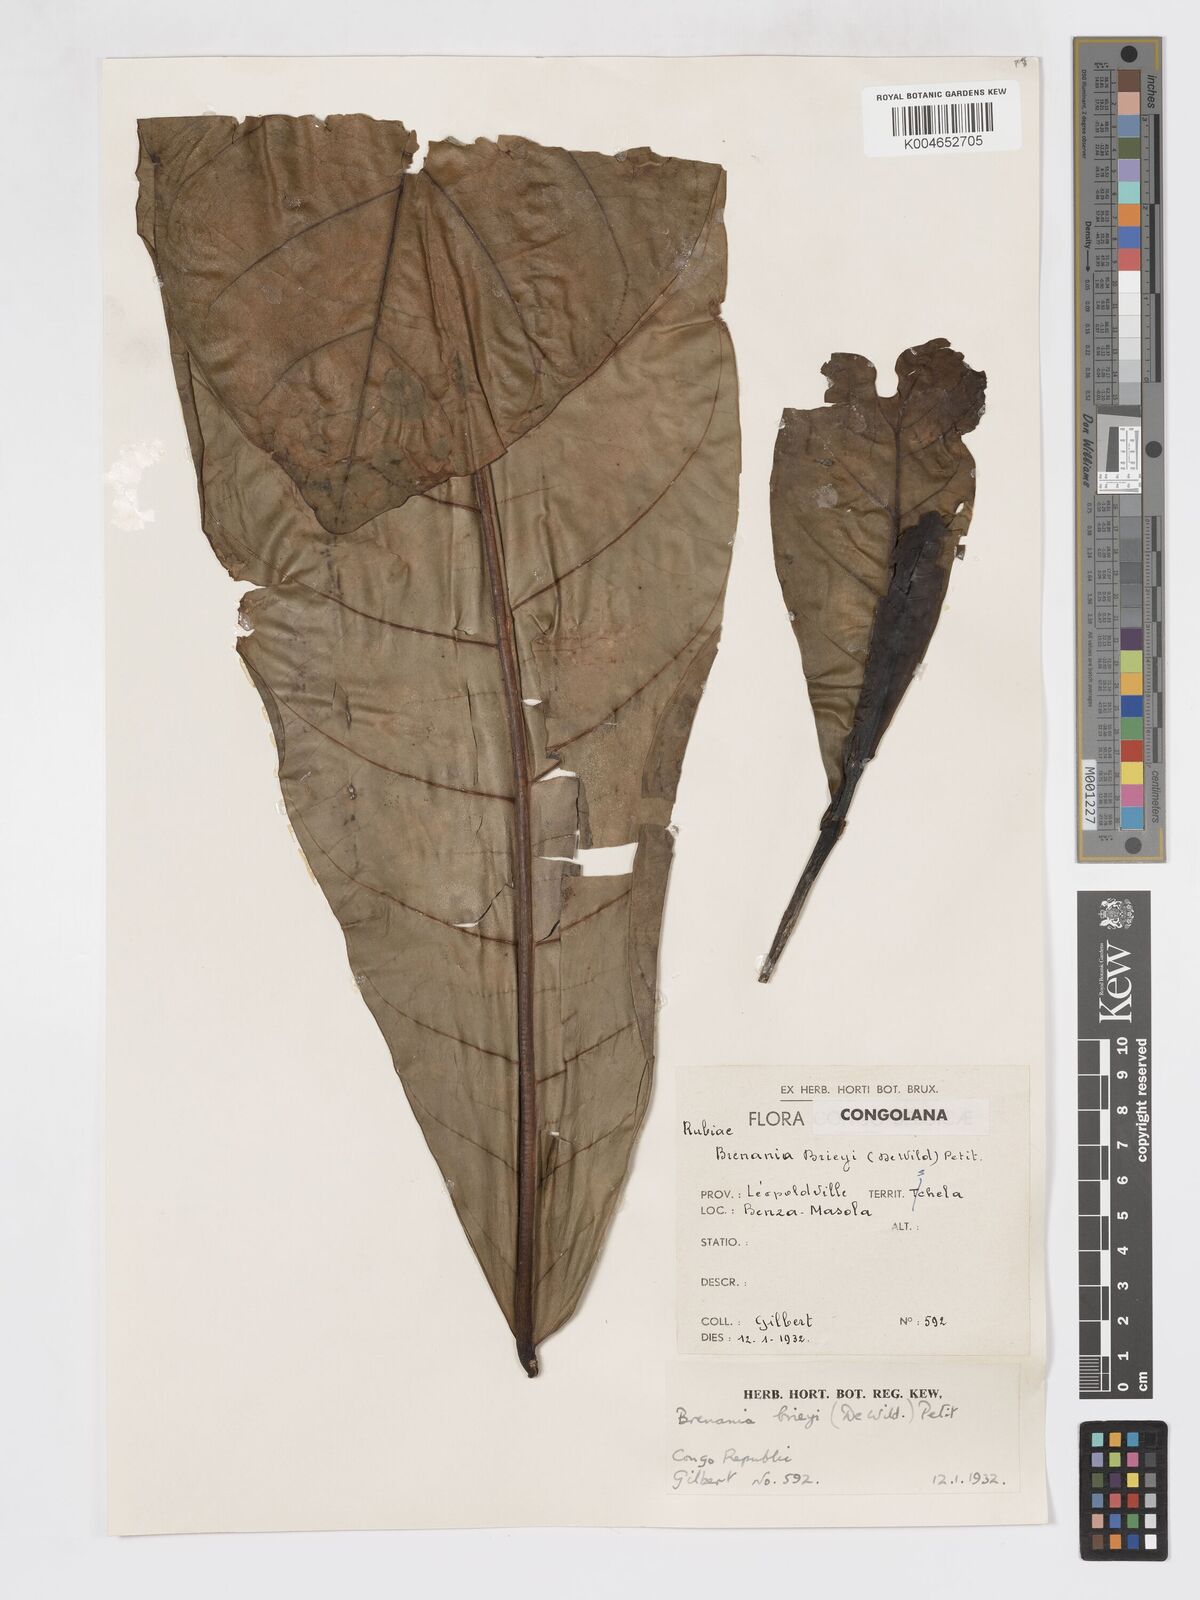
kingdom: Plantae
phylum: Tracheophyta
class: Magnoliopsida
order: Gentianales
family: Rubiaceae
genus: Brenania
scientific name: Brenania brieyi
